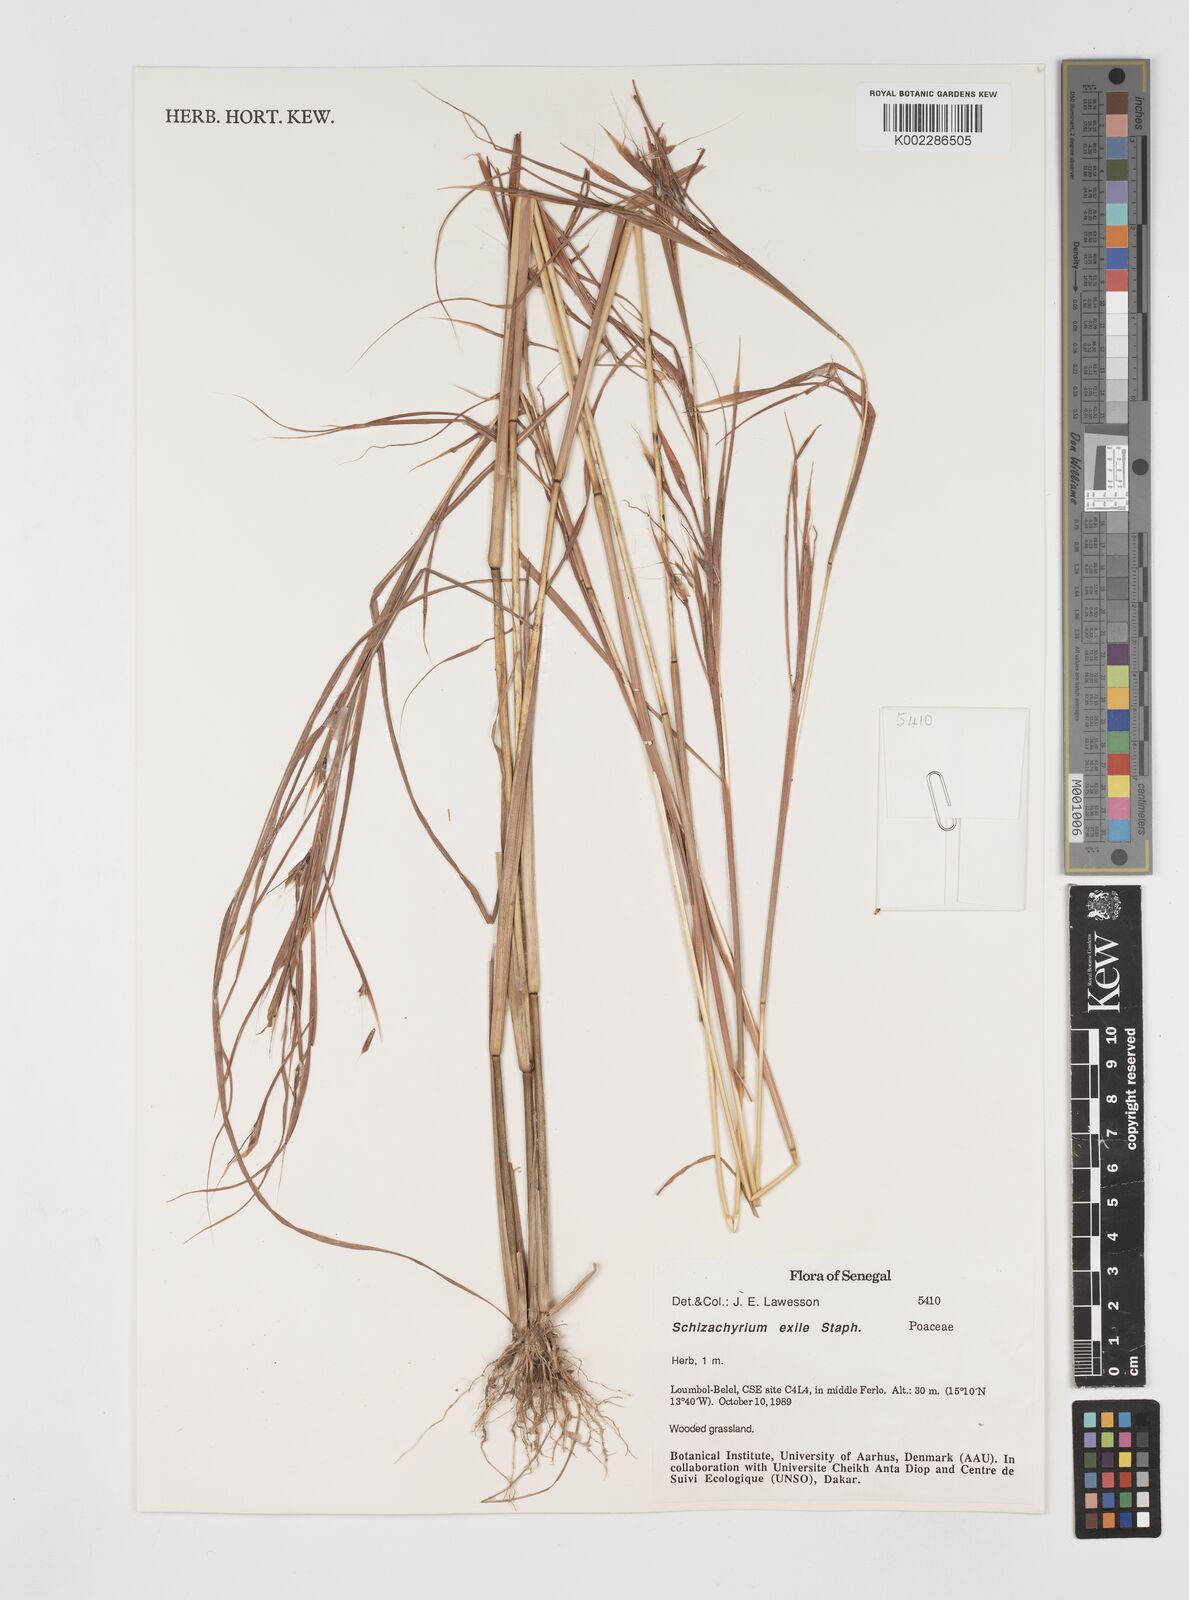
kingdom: Plantae
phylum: Tracheophyta
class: Liliopsida
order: Poales
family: Poaceae
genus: Schizachyrium
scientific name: Schizachyrium exile
